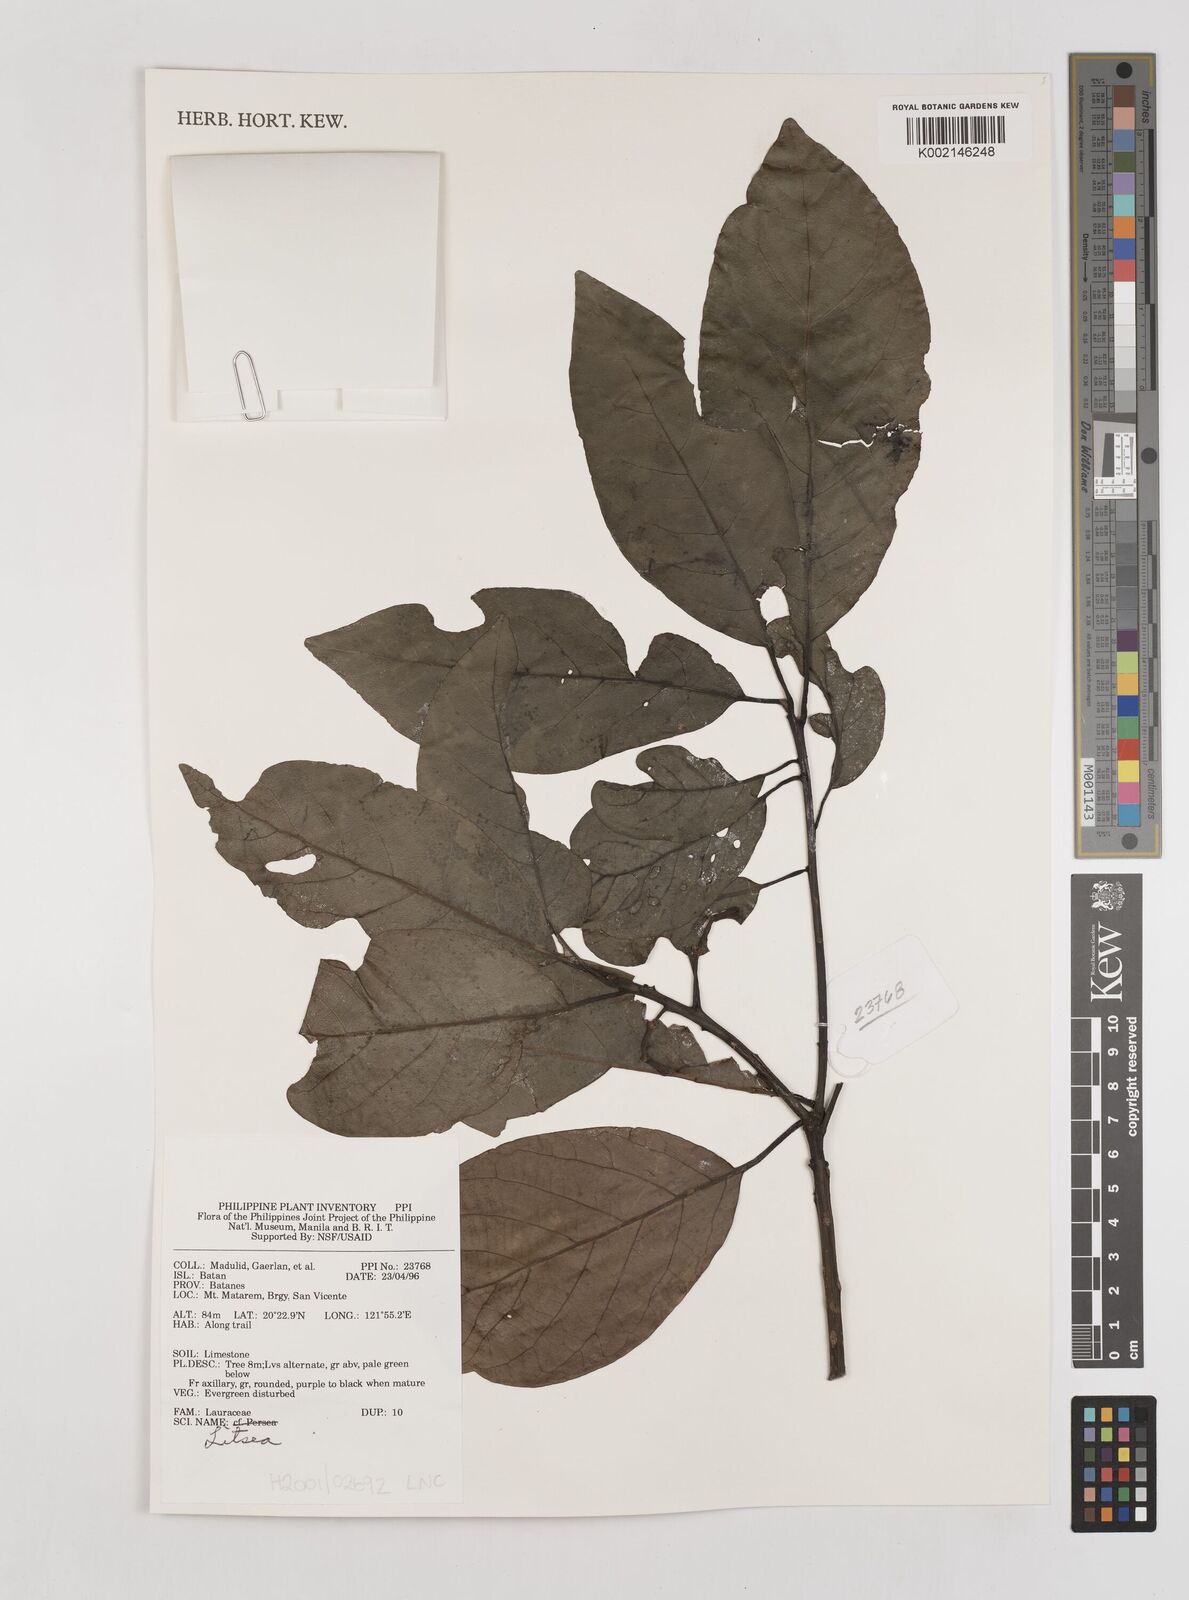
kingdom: Plantae
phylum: Tracheophyta
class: Magnoliopsida
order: Laurales
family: Lauraceae
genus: Litsea
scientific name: Litsea
